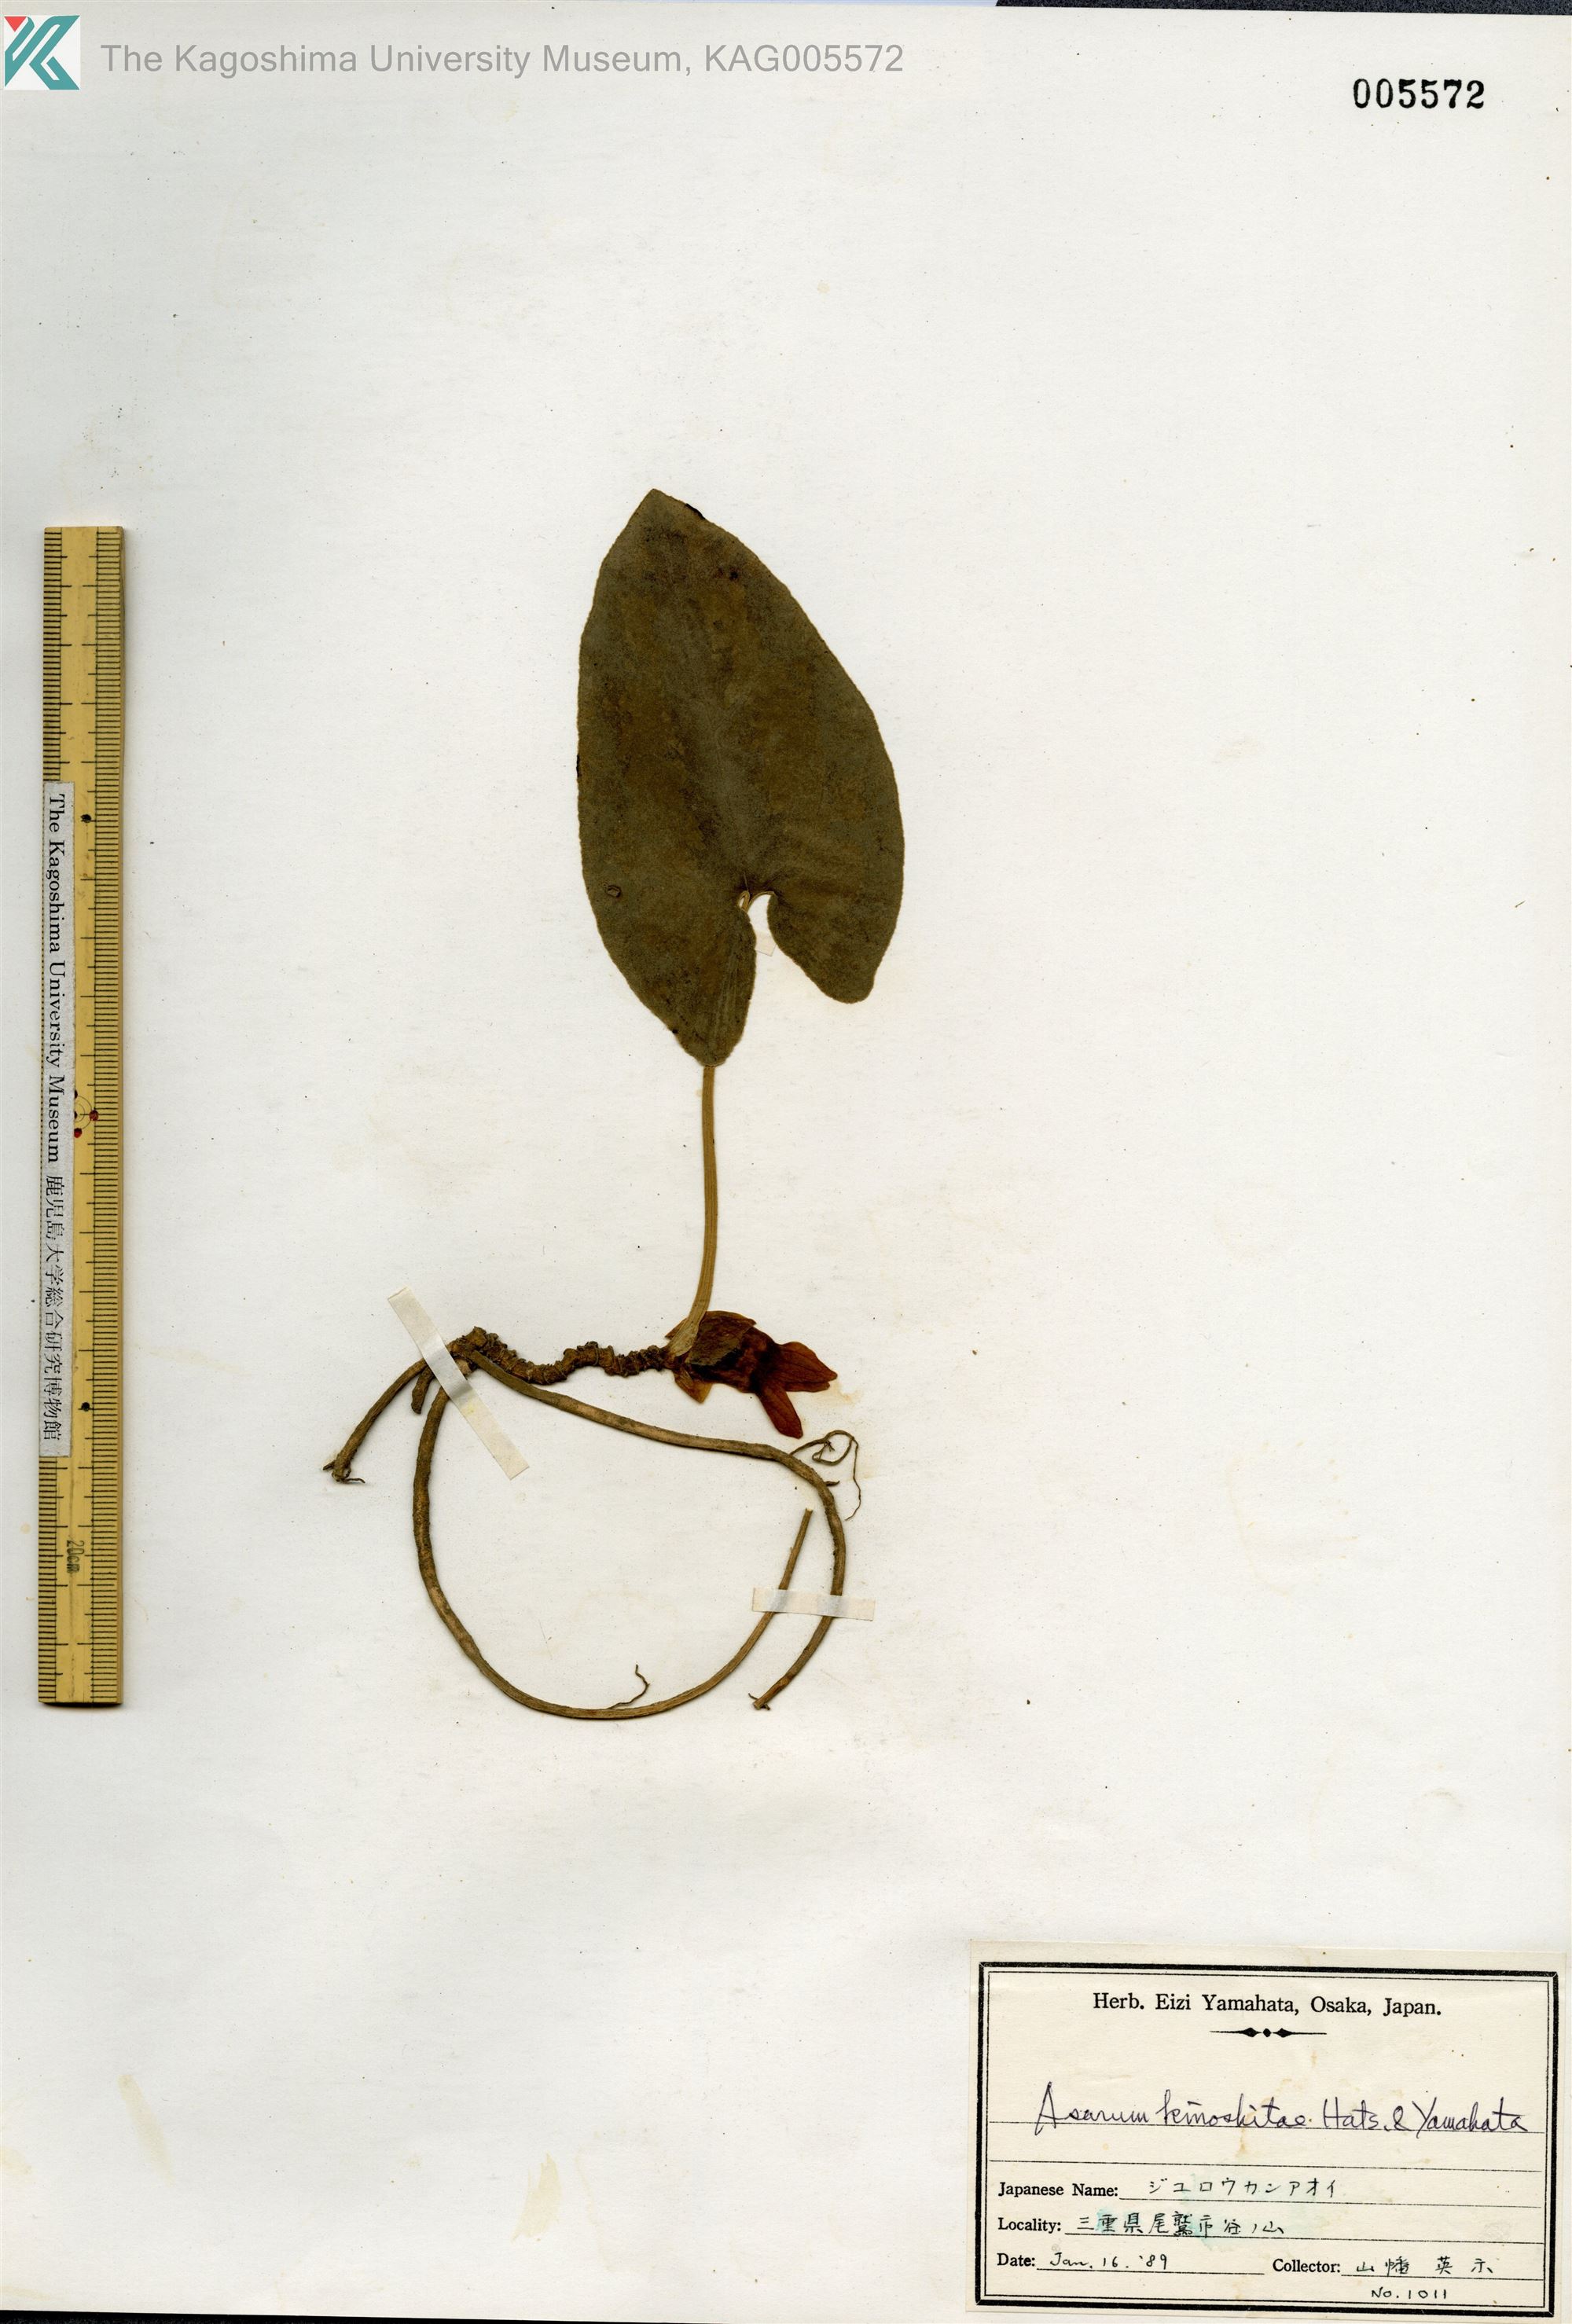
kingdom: Plantae
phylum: Tracheophyta
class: Magnoliopsida
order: Piperales
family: Aristolochiaceae
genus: Asarum
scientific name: Asarum kinoshitae
